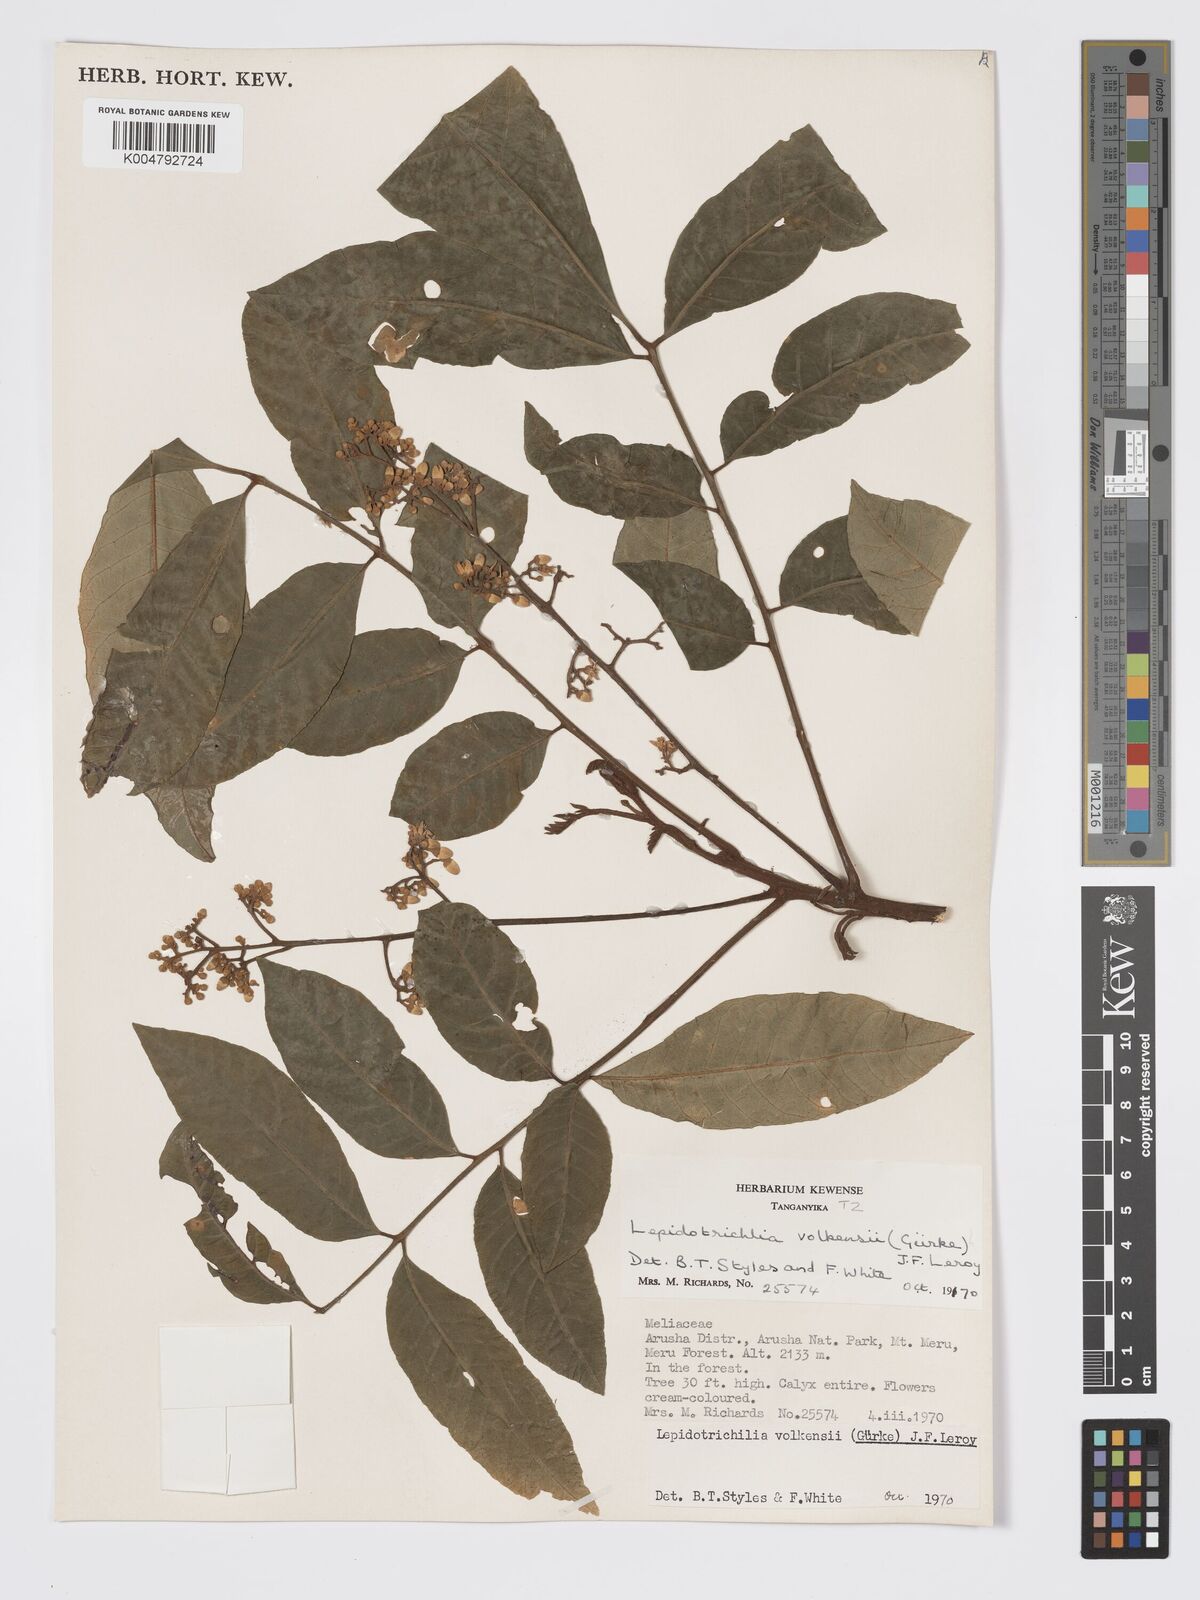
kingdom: Plantae
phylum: Tracheophyta
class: Magnoliopsida
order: Sapindales
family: Meliaceae
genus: Lepidotrichilia
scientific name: Lepidotrichilia volkensii
